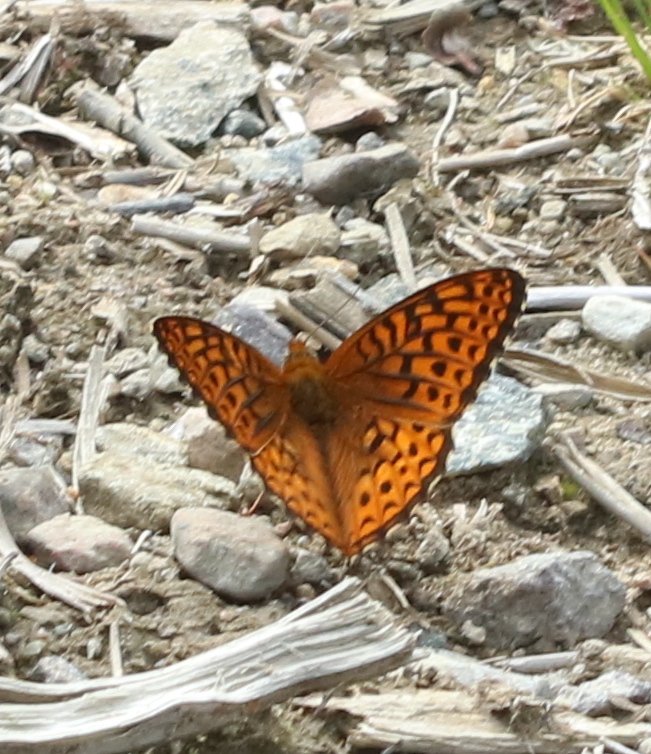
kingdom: Animalia
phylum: Arthropoda
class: Insecta
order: Lepidoptera
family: Nymphalidae
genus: Speyeria
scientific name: Speyeria atlantis
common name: Atlantis Fritillary
